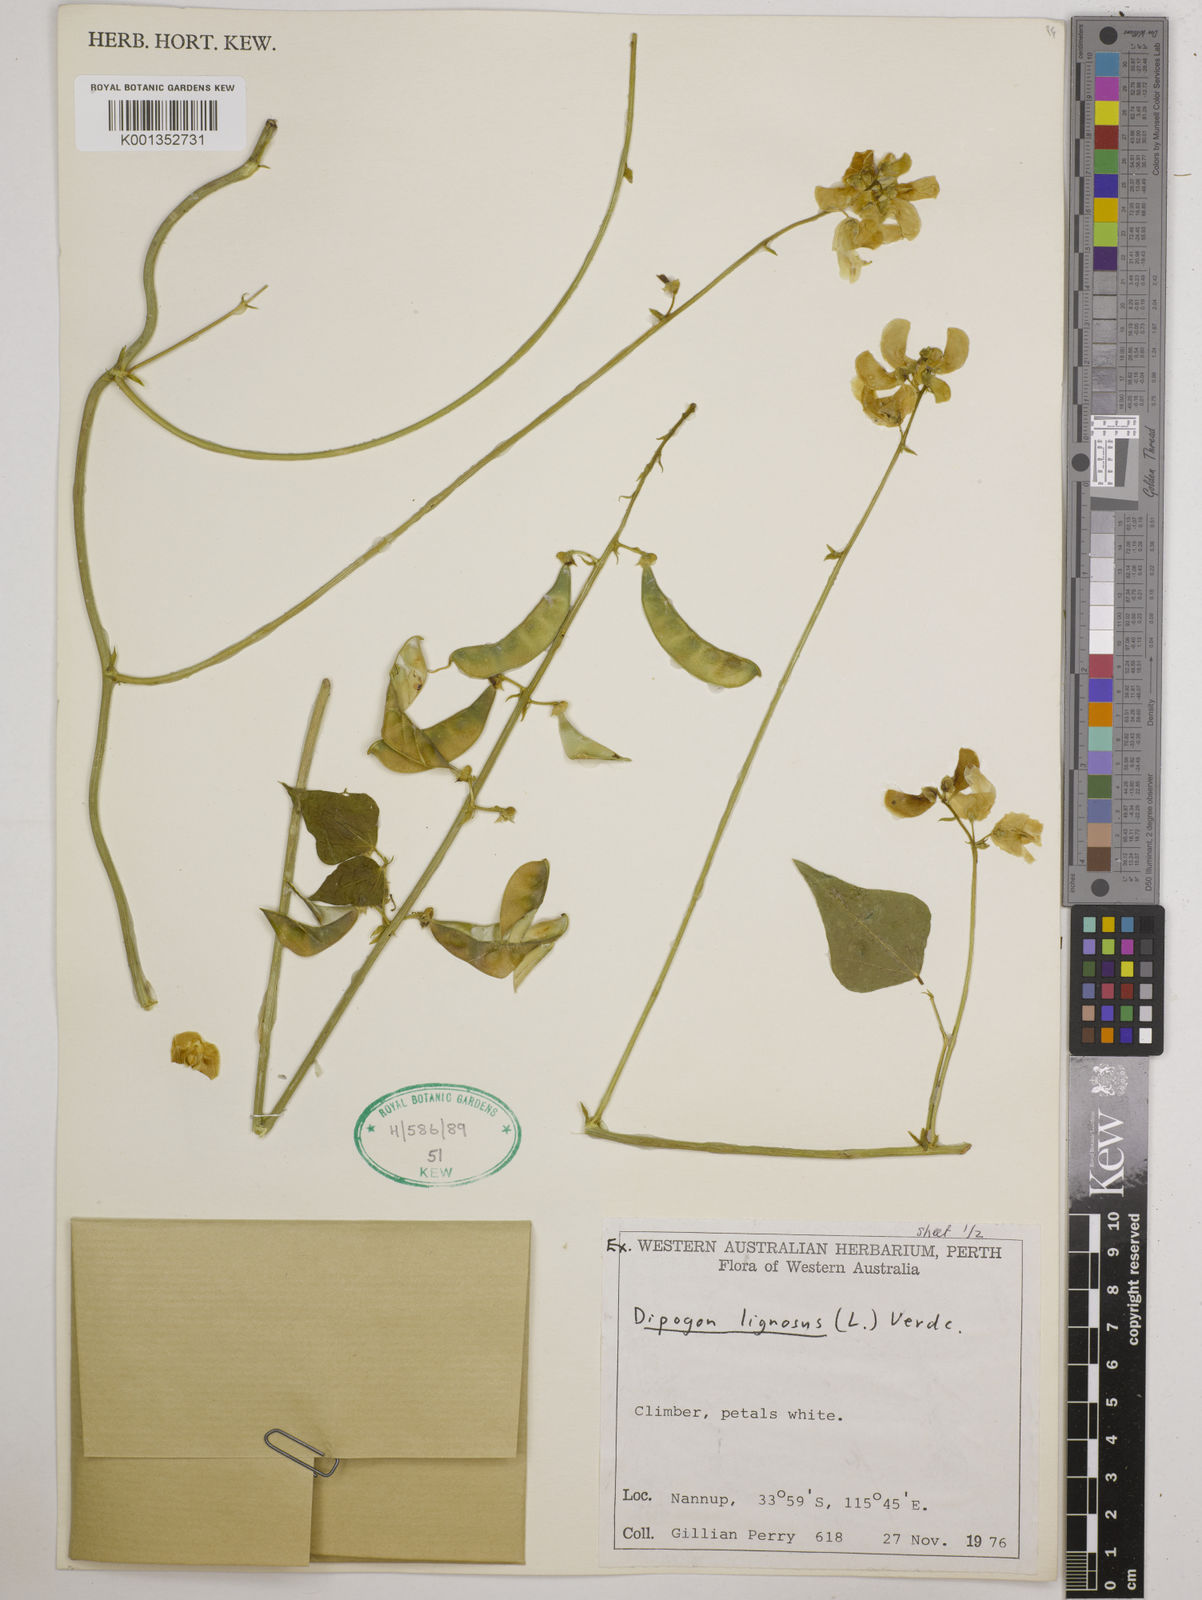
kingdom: Plantae
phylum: Tracheophyta
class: Magnoliopsida
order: Fabales
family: Fabaceae
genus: Dipogon
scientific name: Dipogon lignosus
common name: Okie bean
